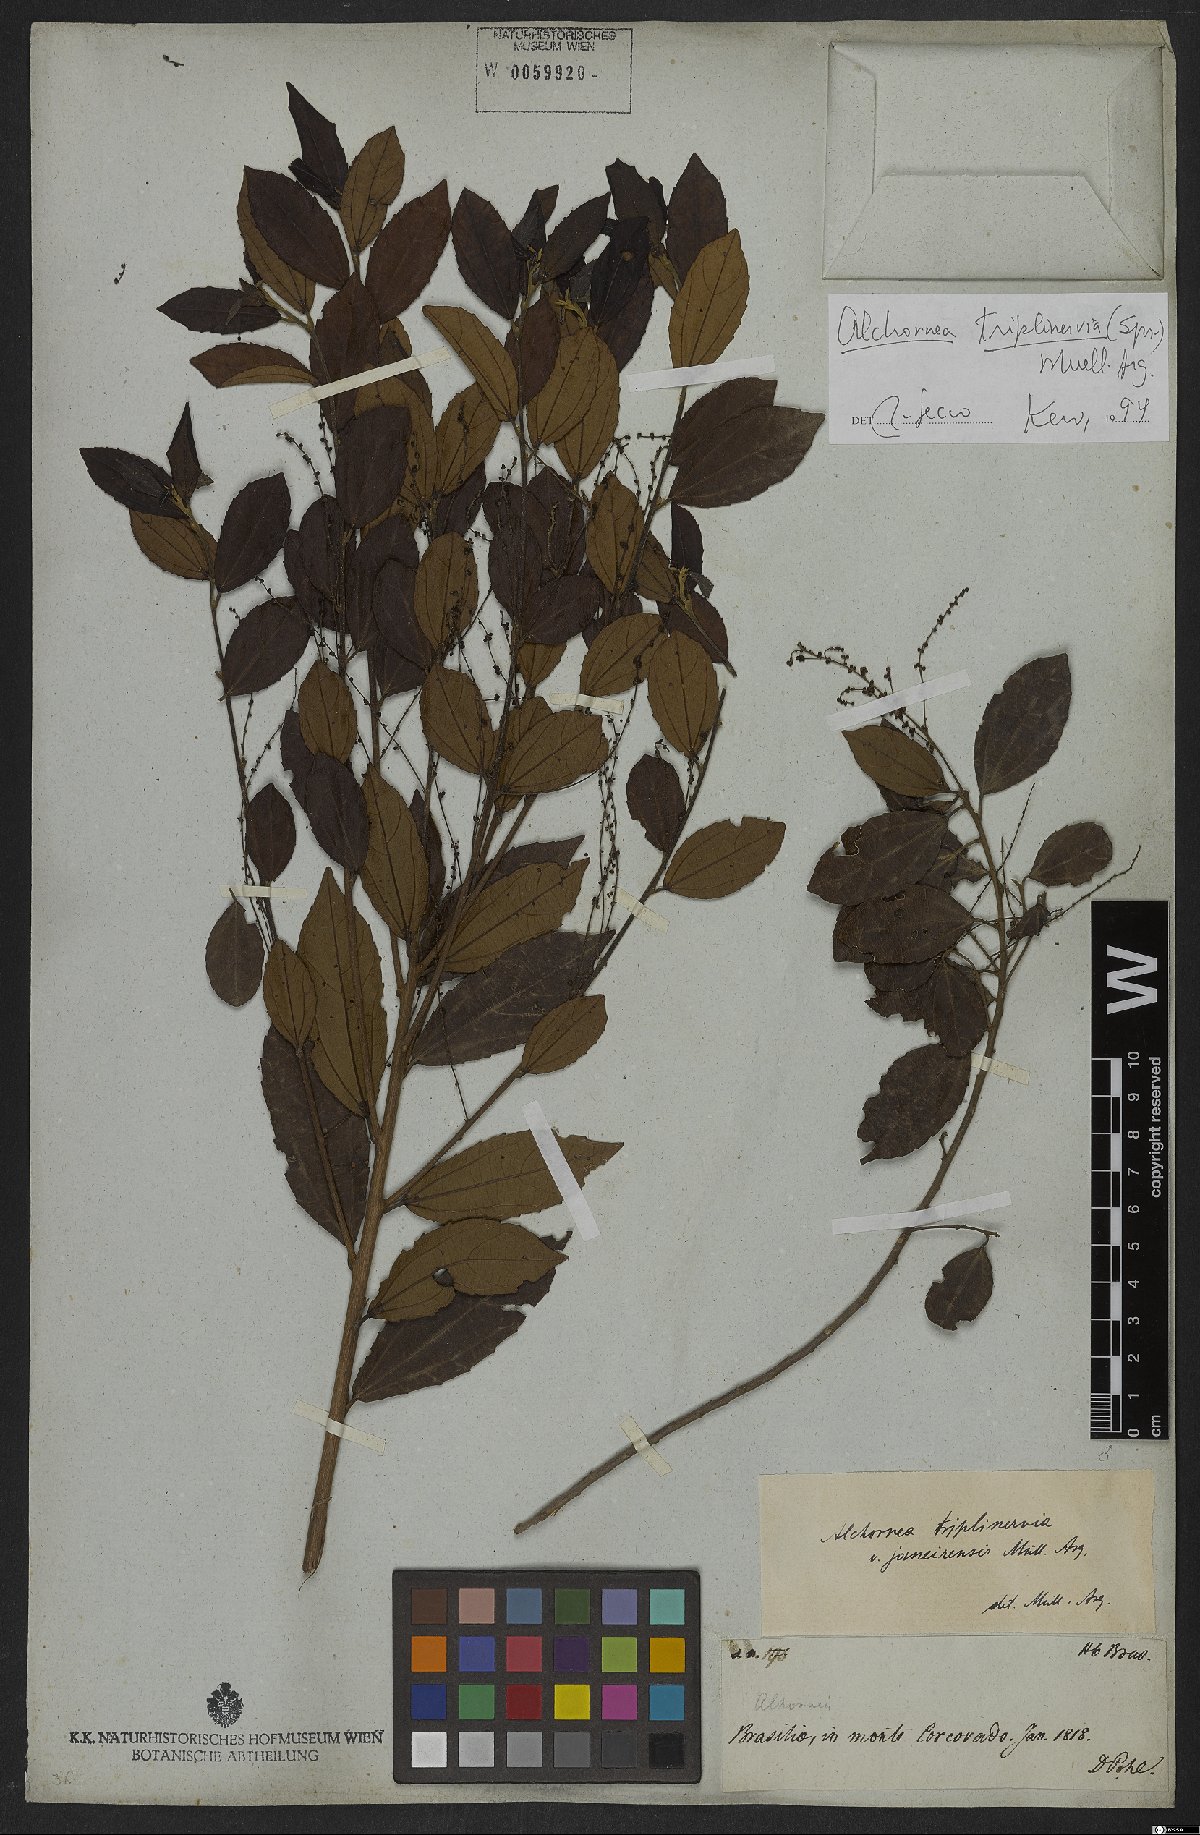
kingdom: Plantae
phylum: Tracheophyta
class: Magnoliopsida
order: Malpighiales
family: Euphorbiaceae
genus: Alchornea
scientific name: Alchornea triplinervia
